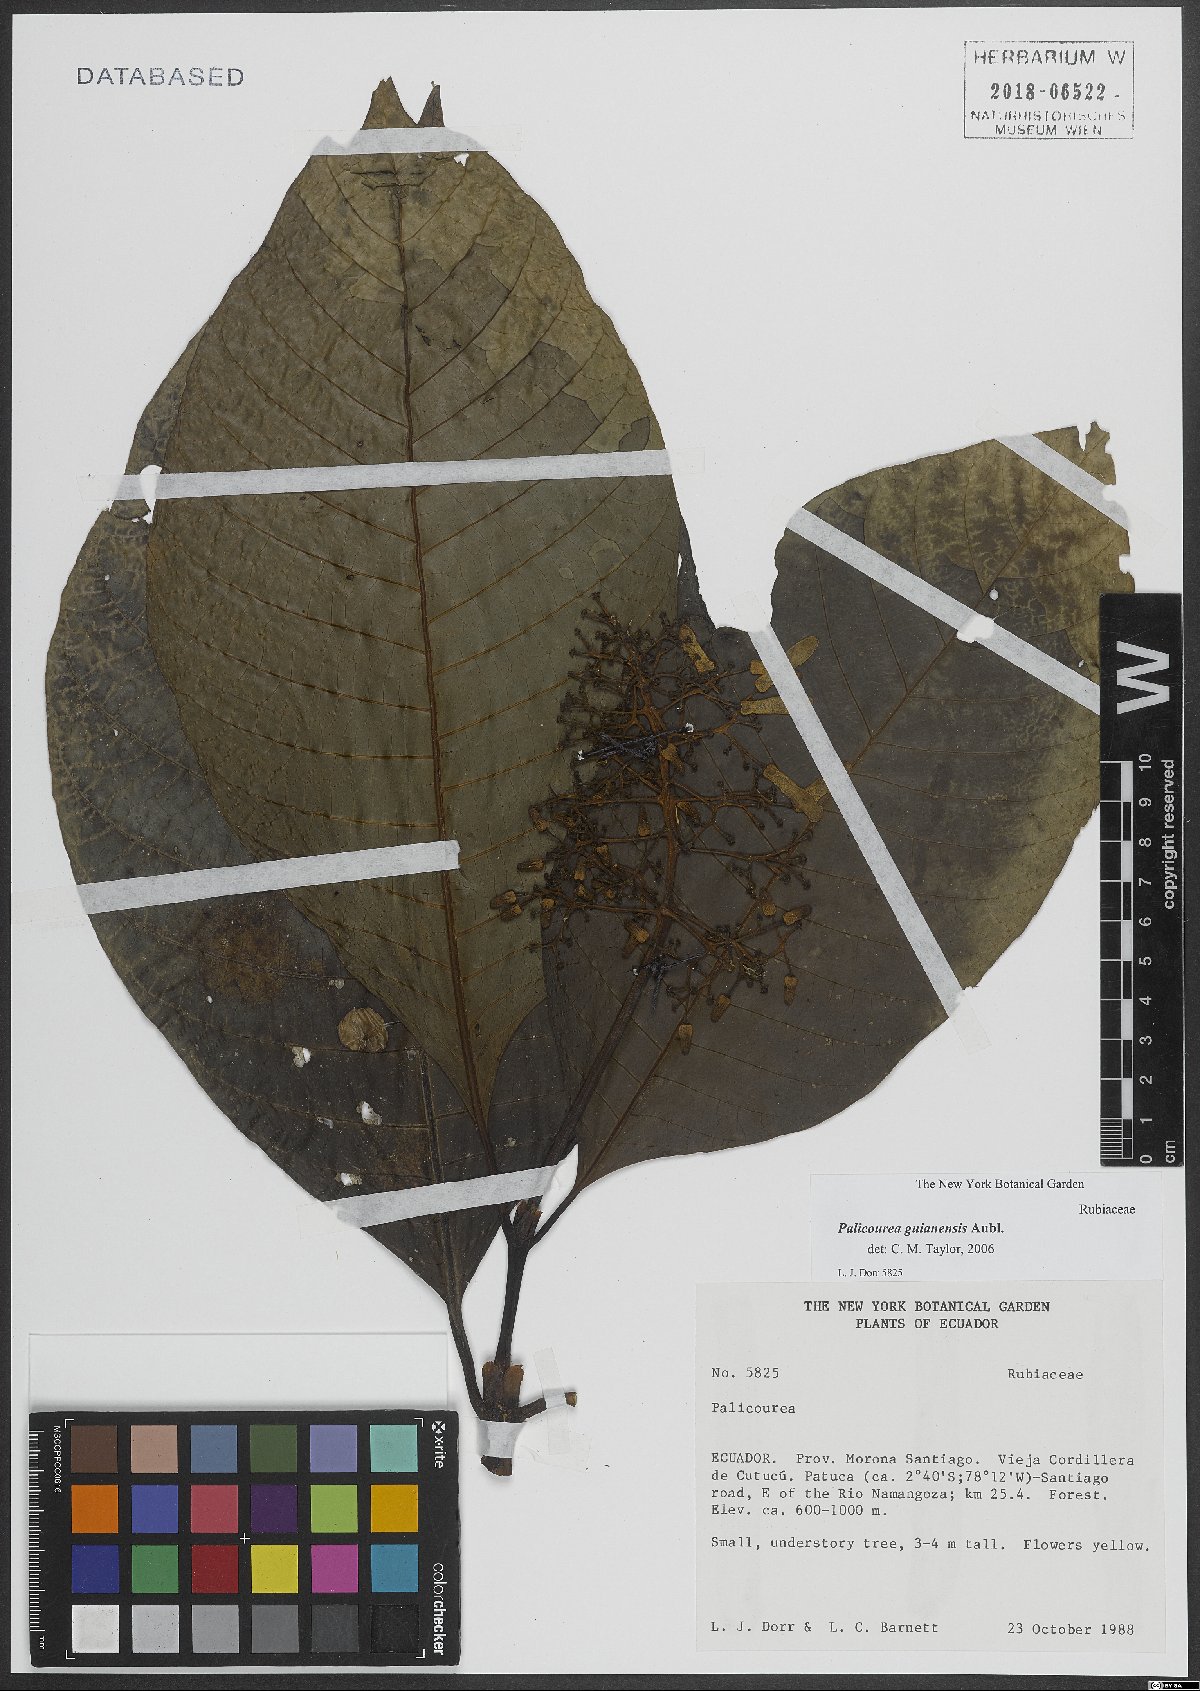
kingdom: Plantae
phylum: Tracheophyta
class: Magnoliopsida
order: Gentianales
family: Rubiaceae
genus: Palicourea
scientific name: Palicourea guianensis
